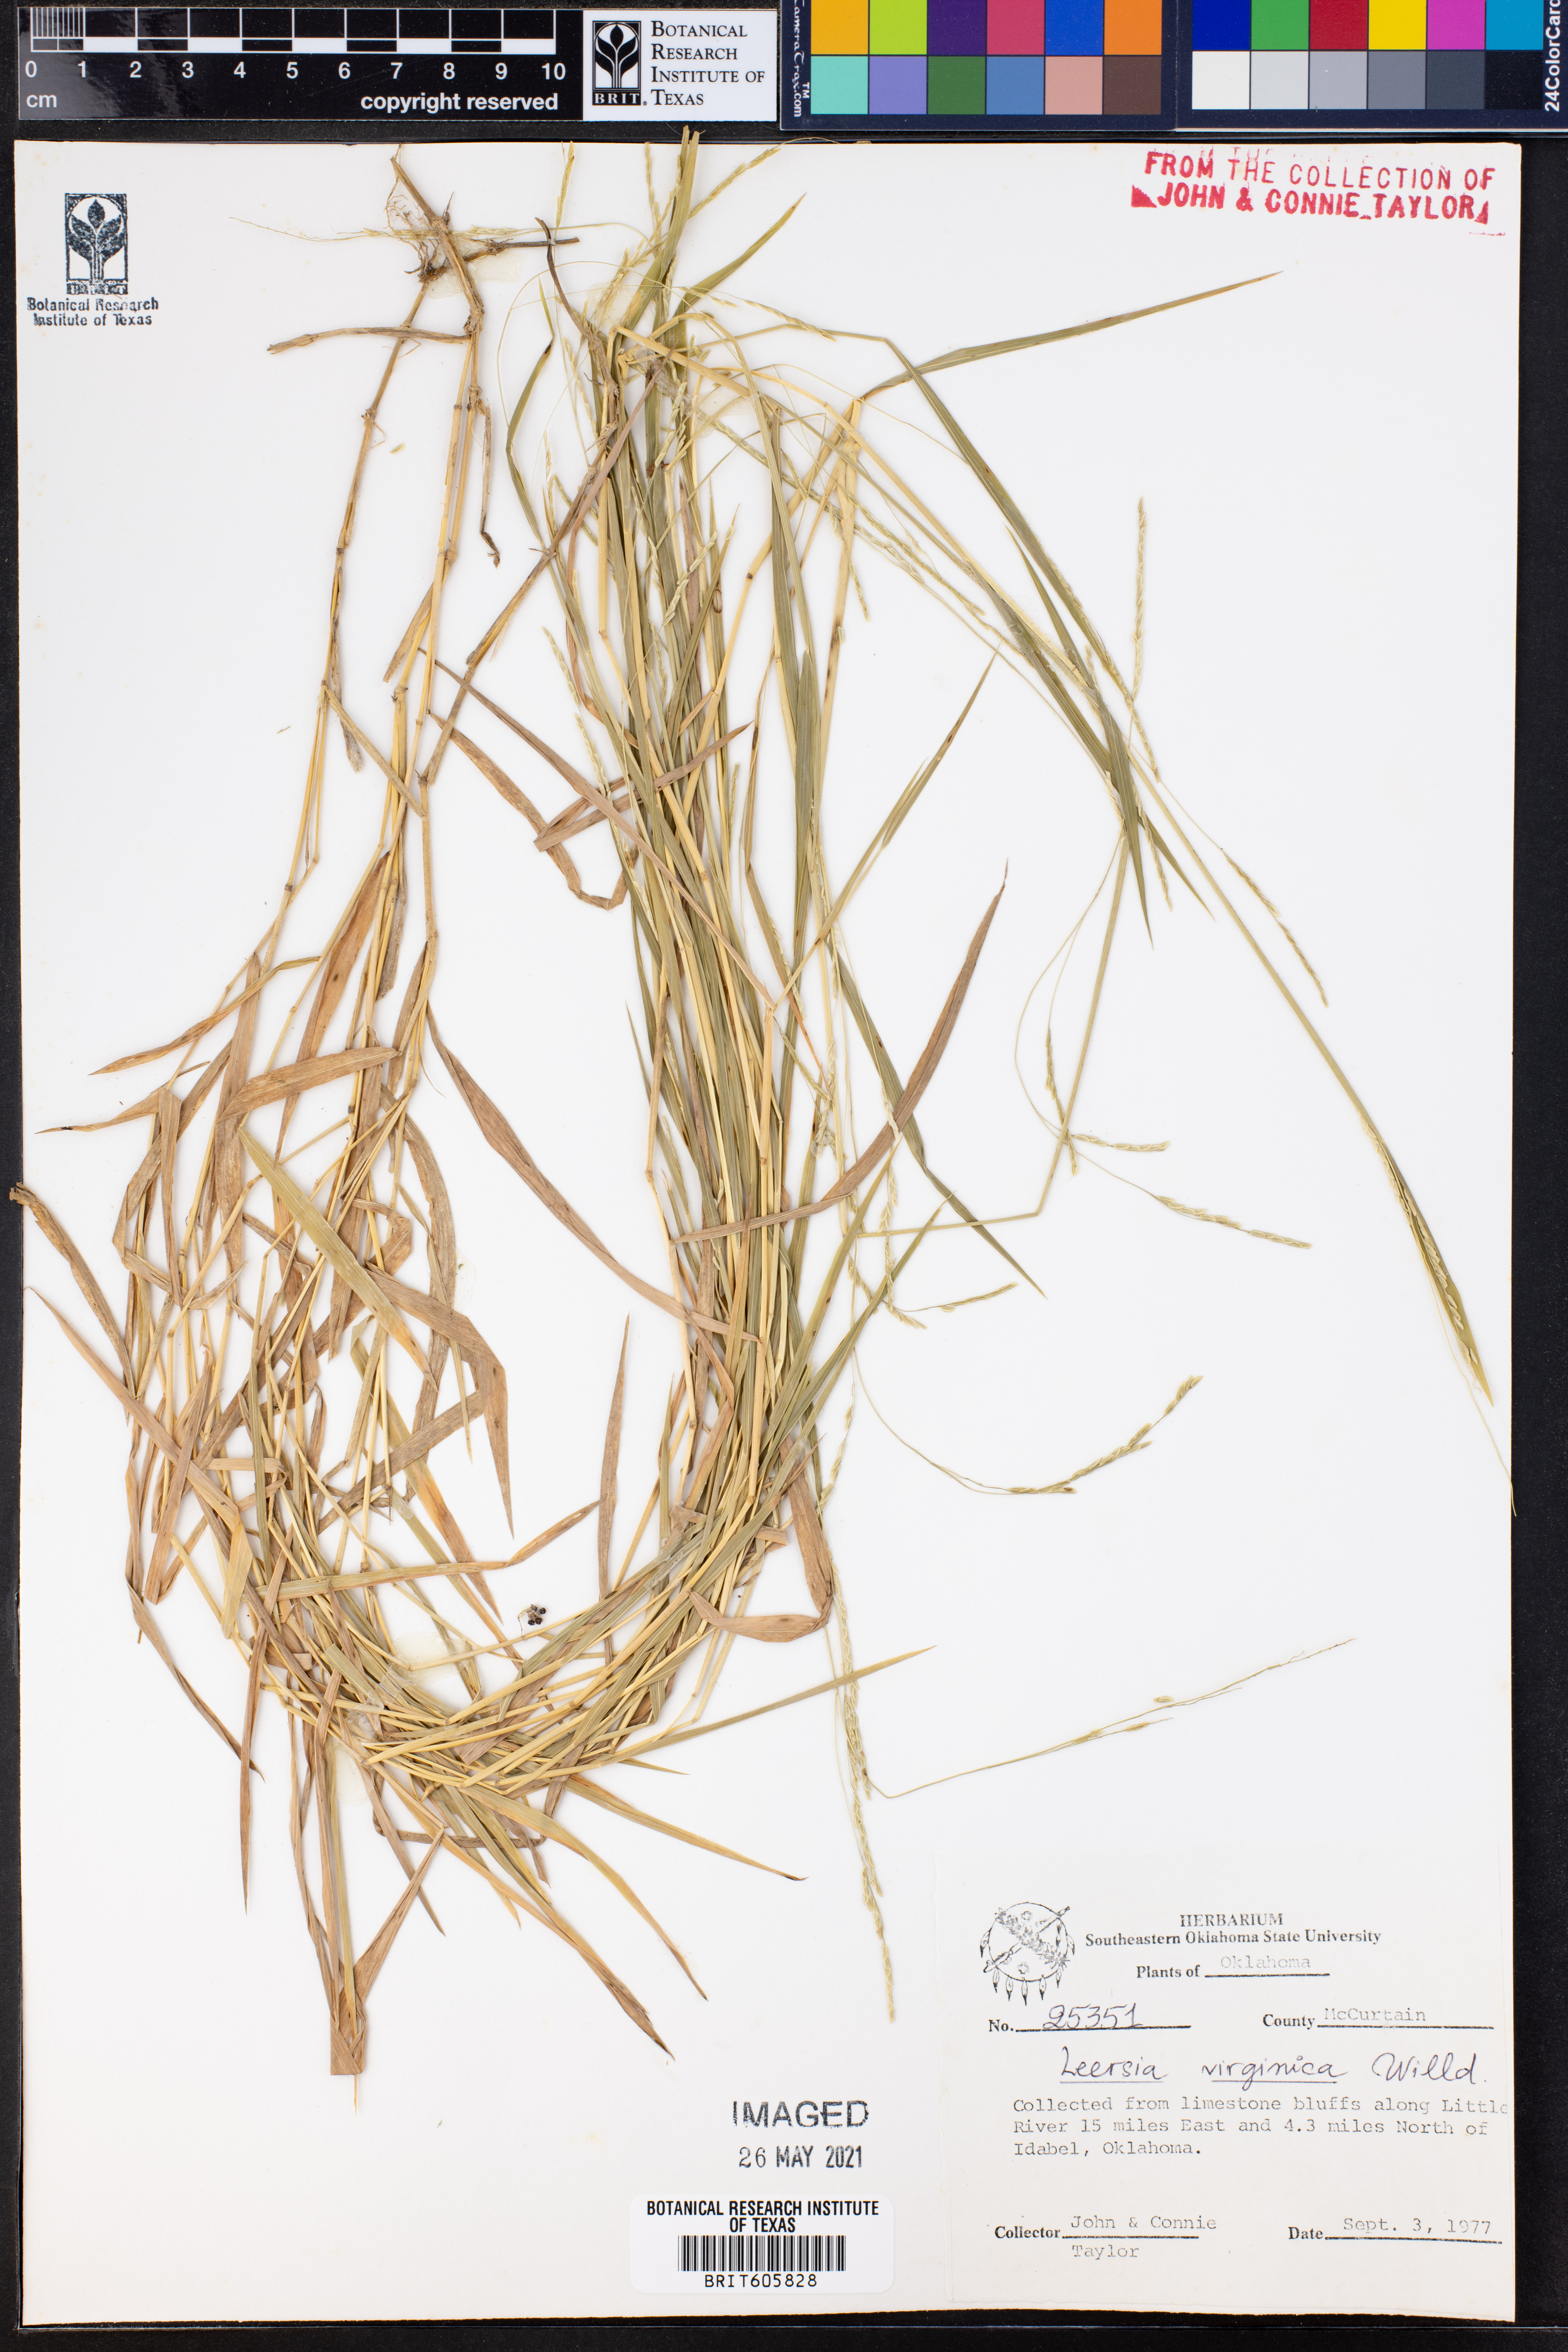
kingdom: Plantae
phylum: Tracheophyta
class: Liliopsida
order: Poales
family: Poaceae
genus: Leersia
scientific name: Leersia virginica
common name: White cutgrass
